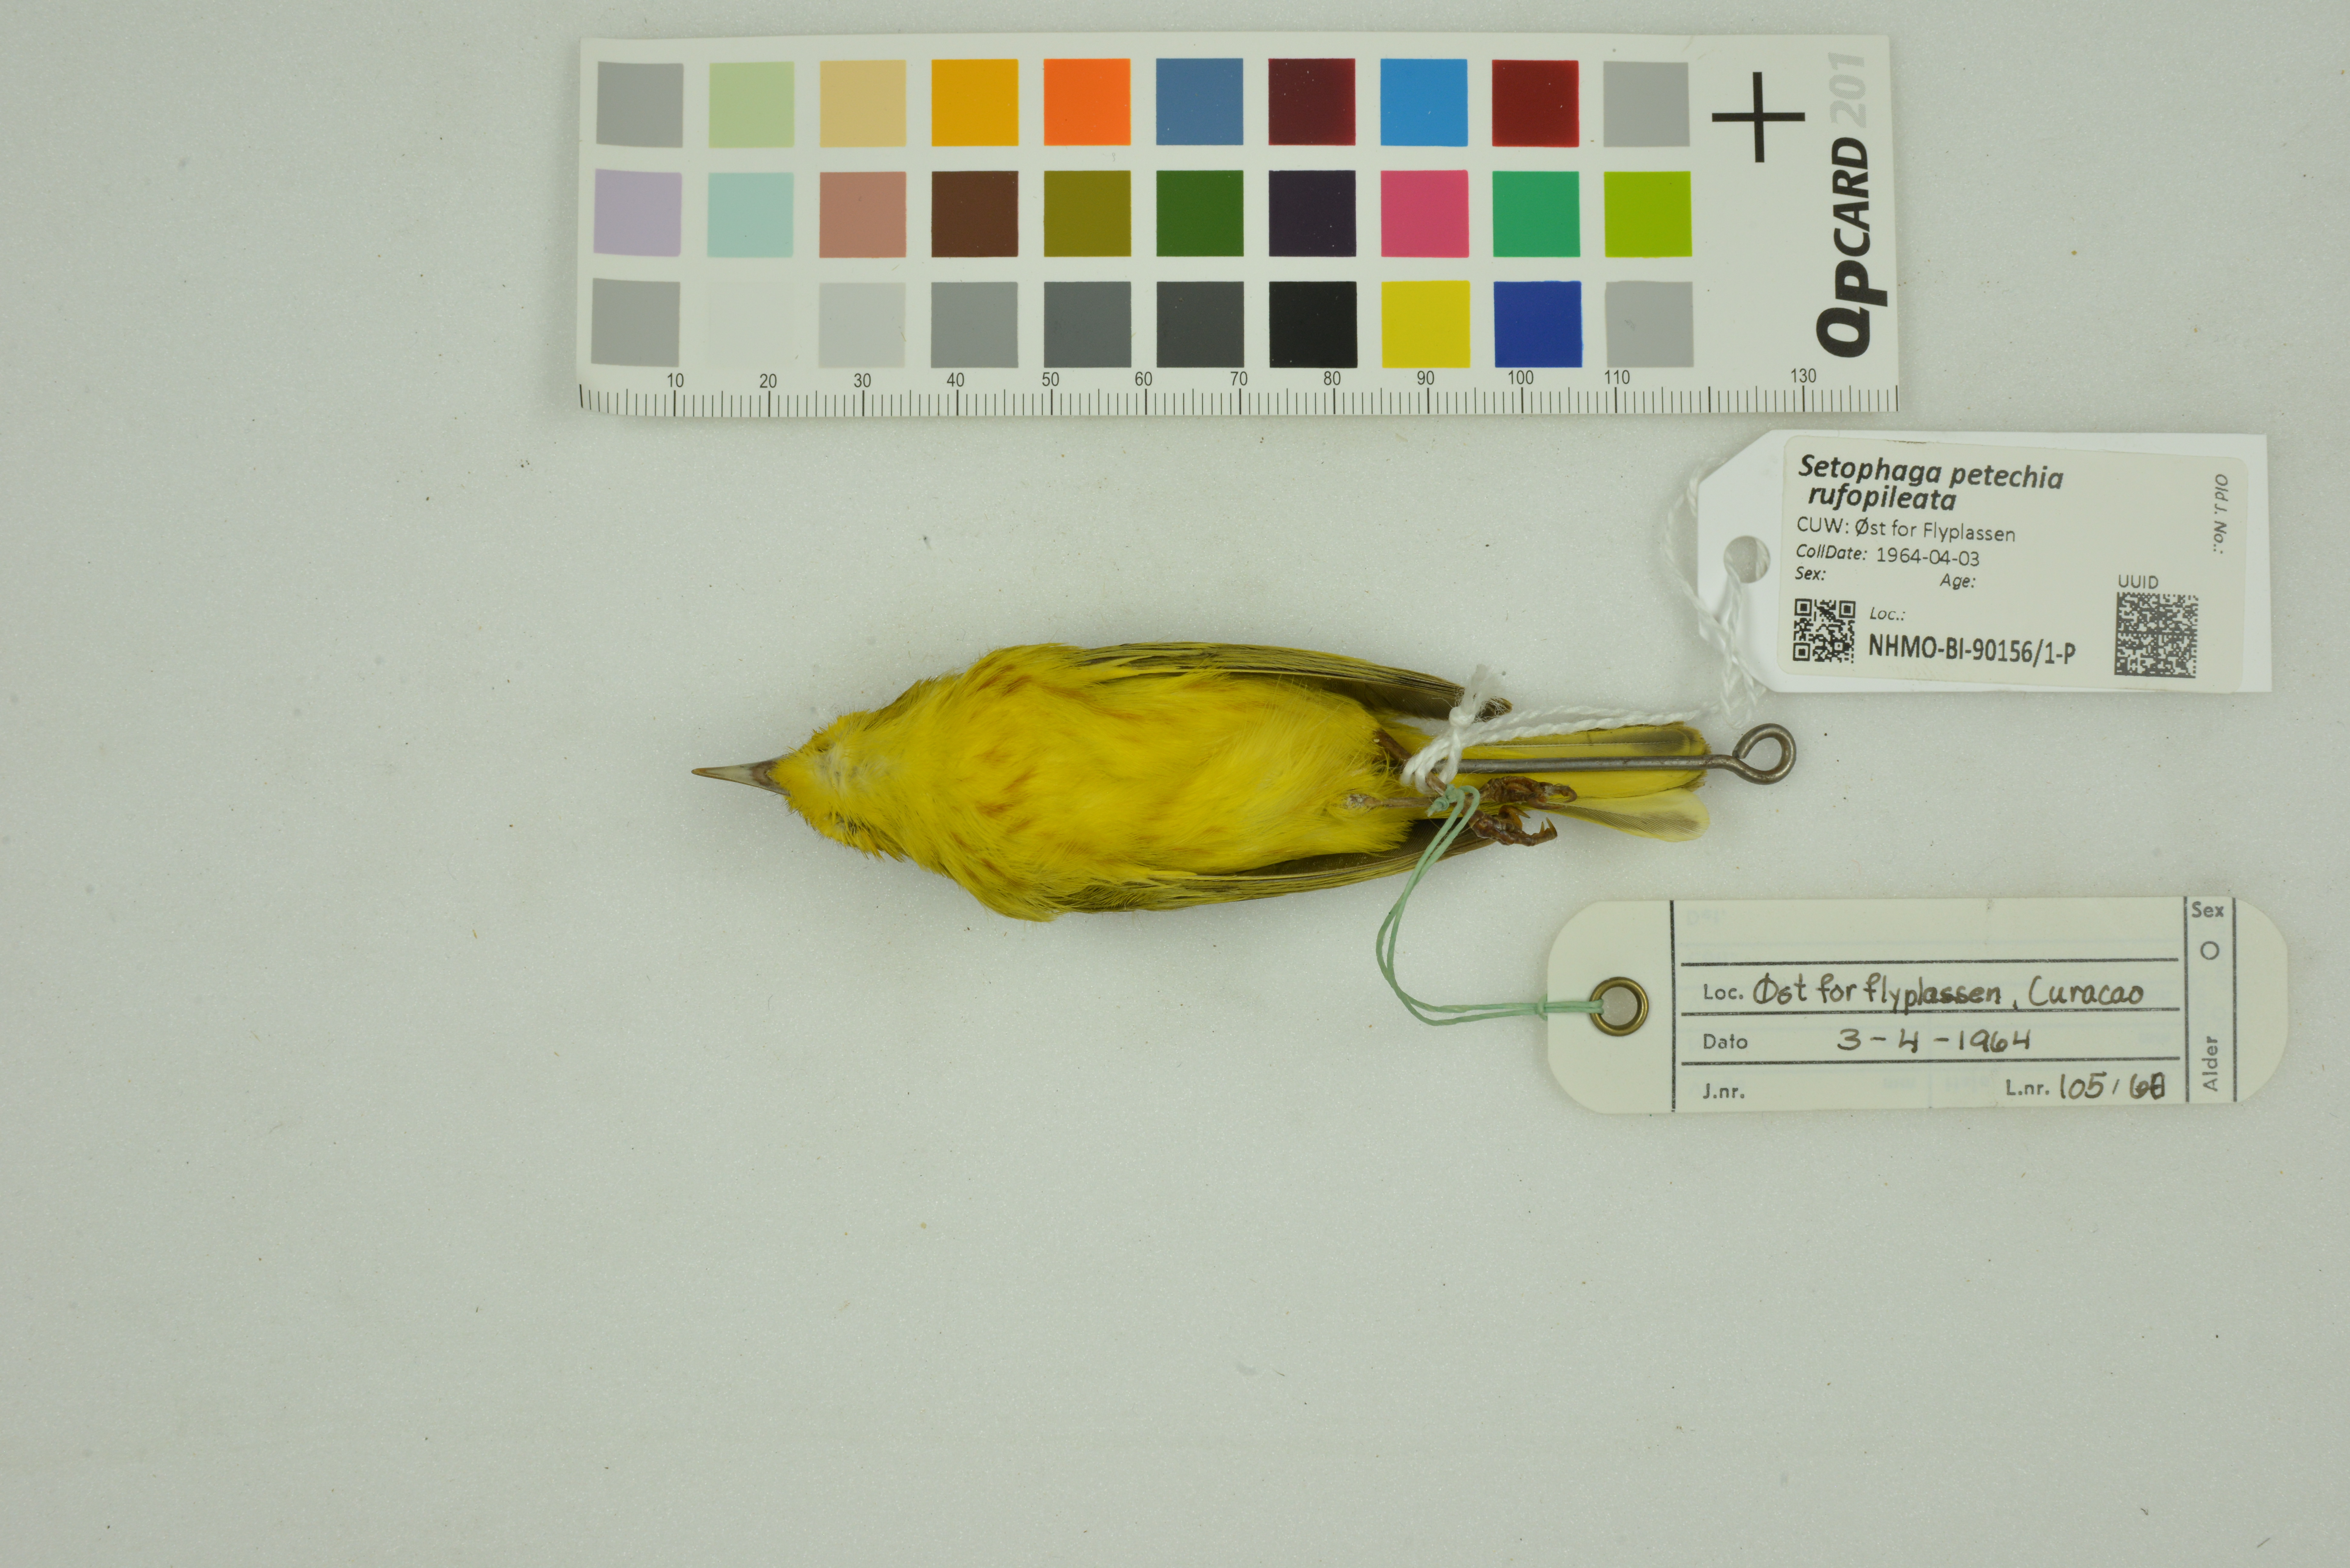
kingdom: Animalia
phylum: Chordata
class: Aves
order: Passeriformes
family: Parulidae
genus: Setophaga
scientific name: Setophaga petechia
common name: Yellow warbler
